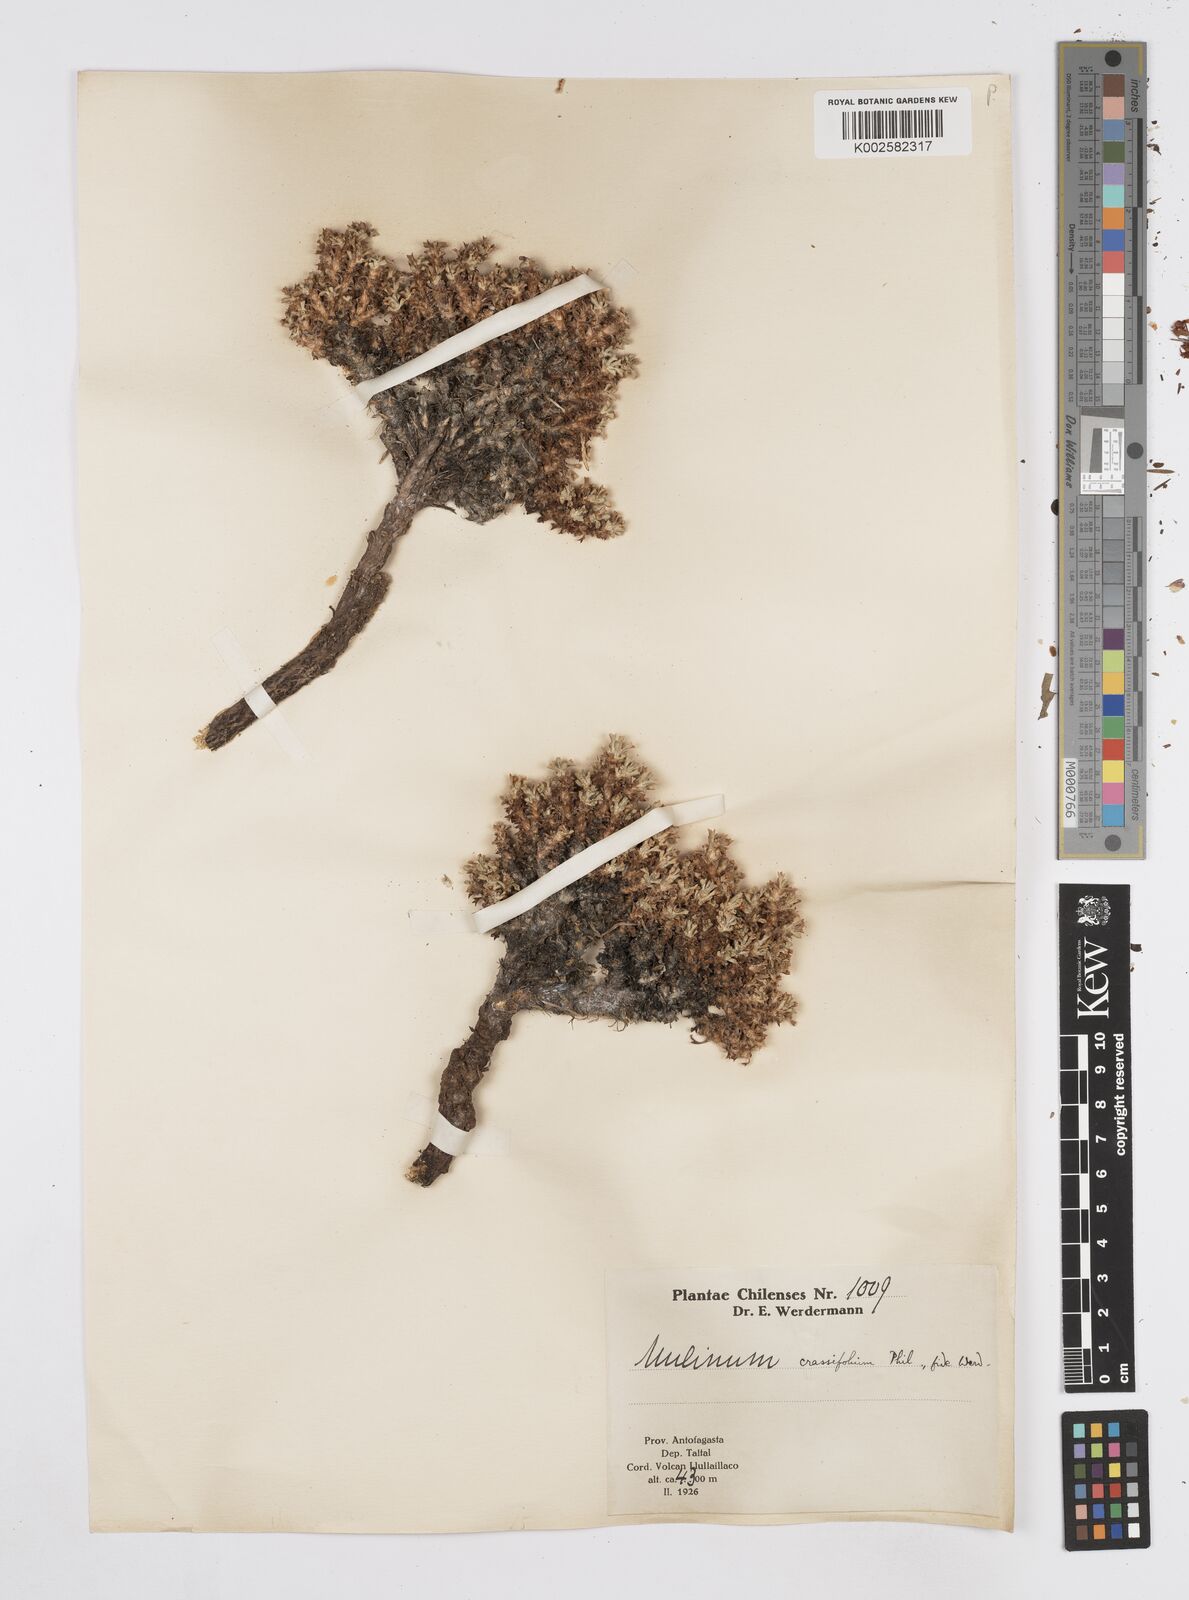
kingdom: Plantae
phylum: Tracheophyta
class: Magnoliopsida
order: Apiales
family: Apiaceae
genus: Azorella
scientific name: Azorella trisecta
